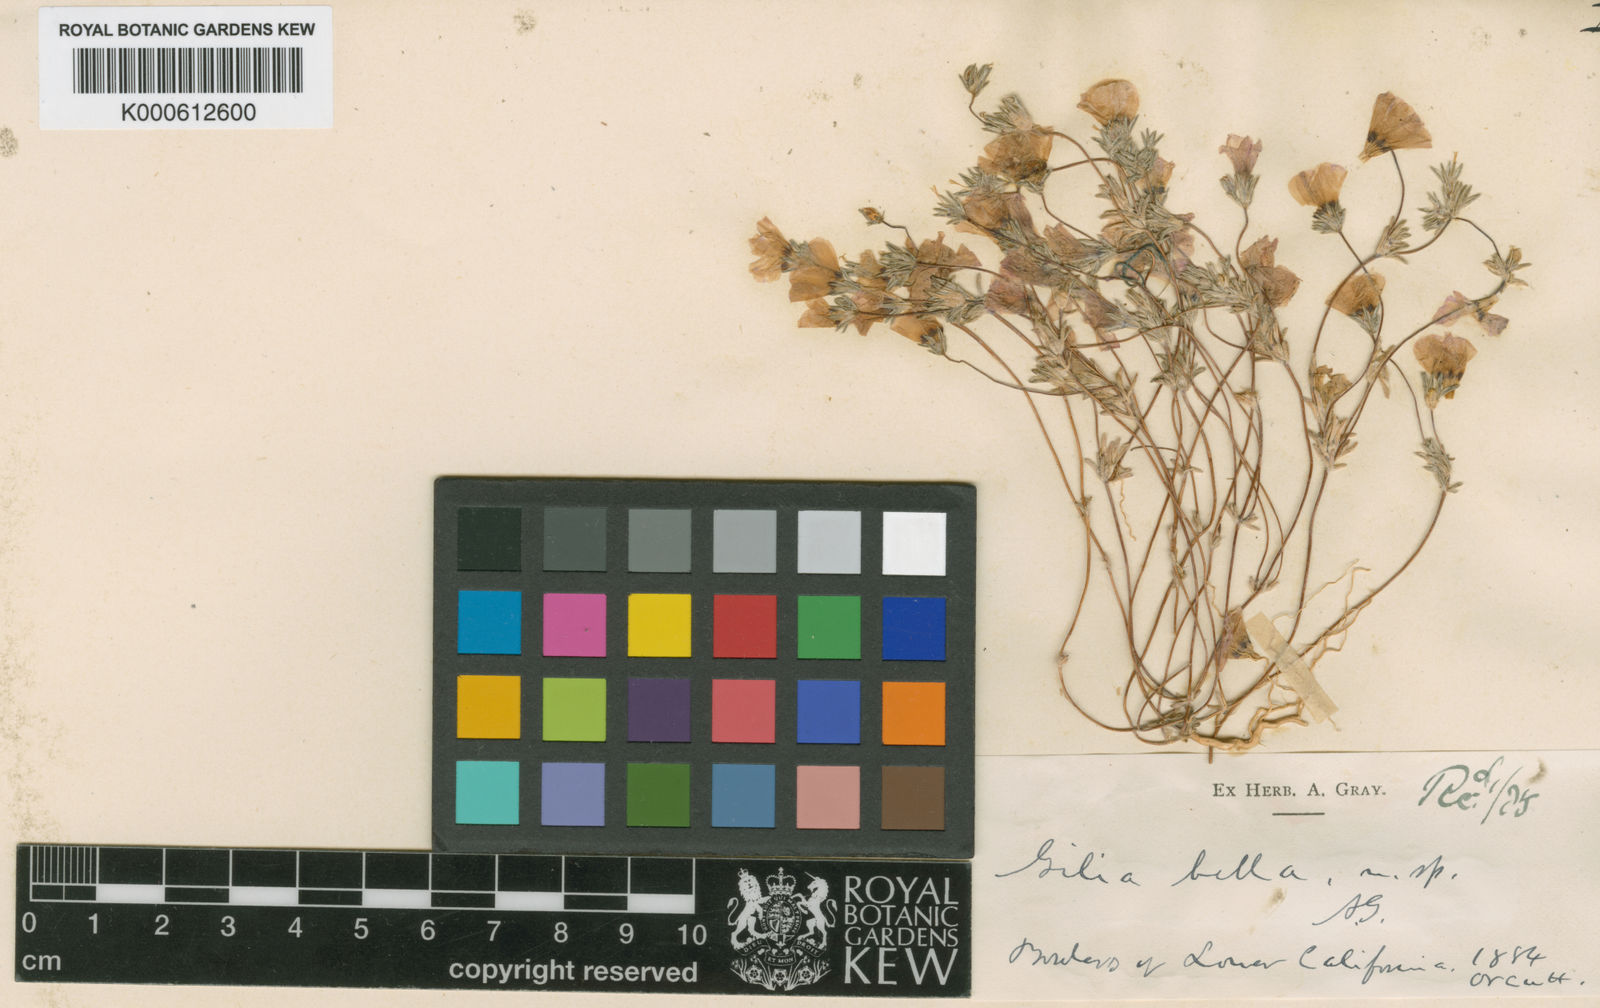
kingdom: Plantae
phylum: Tracheophyta
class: Magnoliopsida
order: Ericales
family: Polemoniaceae
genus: Linanthus
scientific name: Linanthus jonesii
